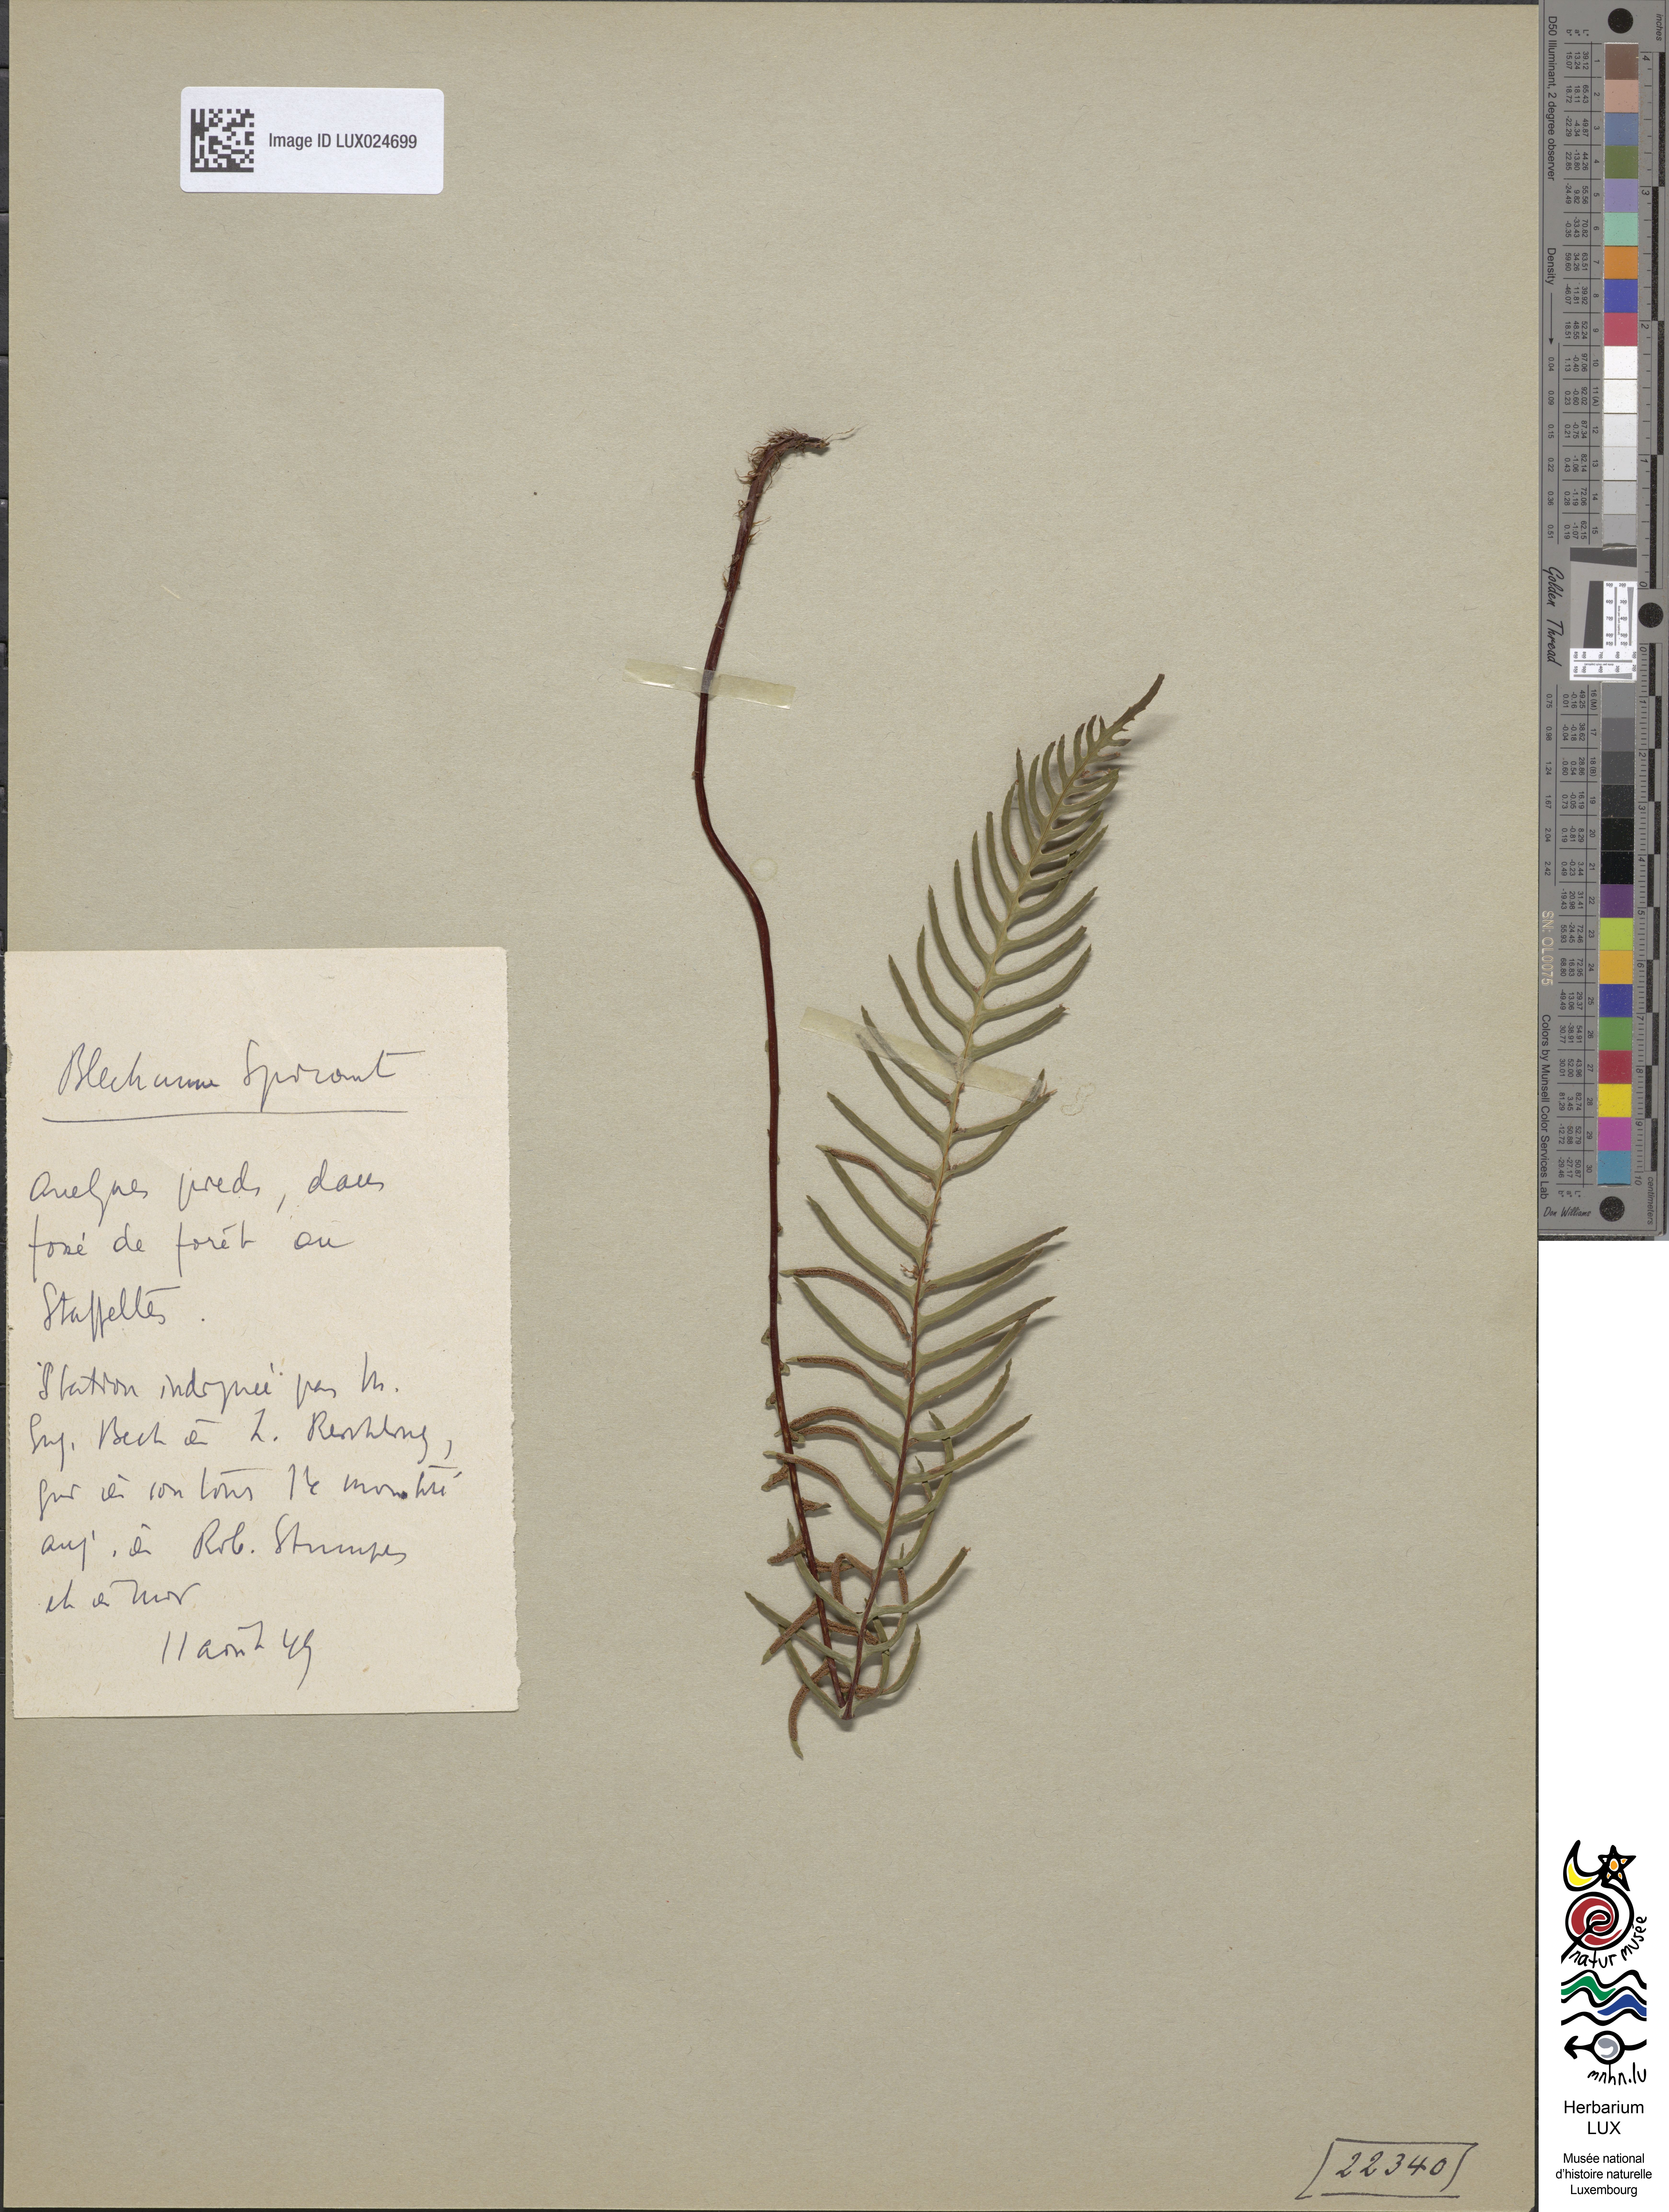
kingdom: Plantae
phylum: Tracheophyta
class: Polypodiopsida
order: Polypodiales
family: Blechnaceae
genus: Struthiopteris
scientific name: Struthiopteris spicant
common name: Deer fern
